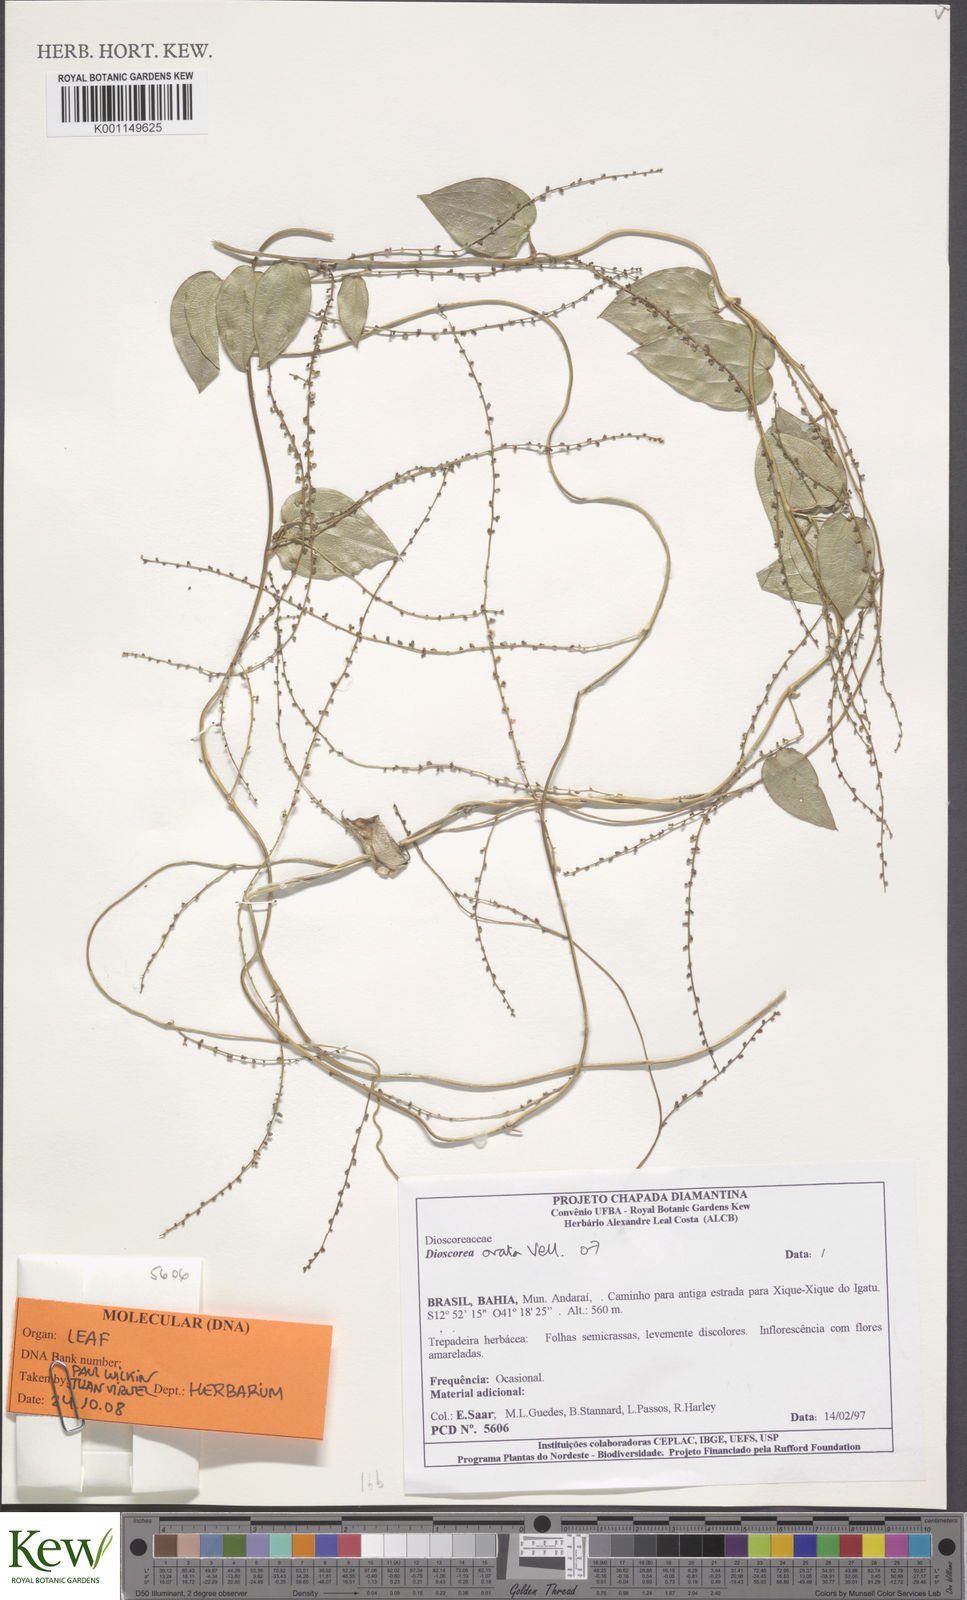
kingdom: Plantae
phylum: Tracheophyta
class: Liliopsida
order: Dioscoreales
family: Dioscoreaceae
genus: Dioscorea
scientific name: Dioscorea sincorensis
